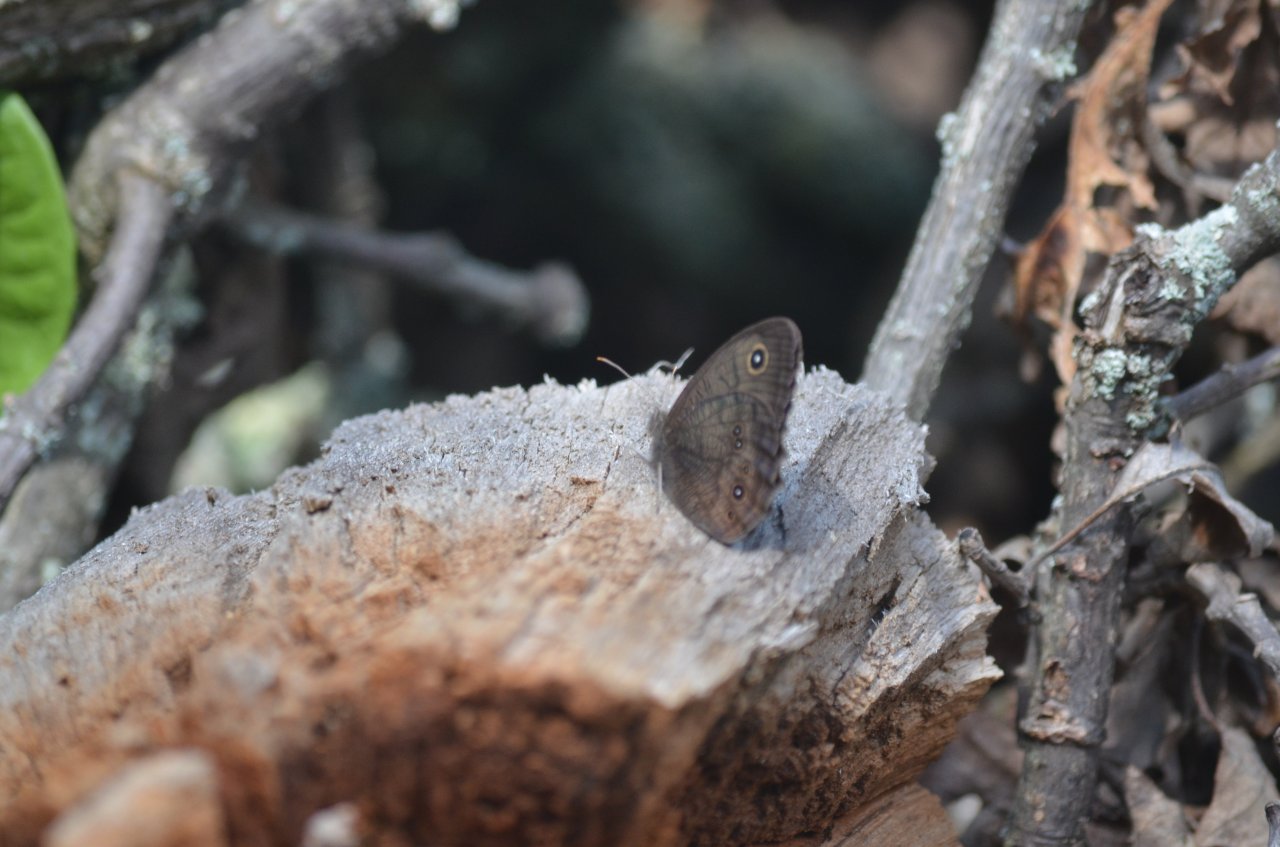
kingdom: Animalia
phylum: Arthropoda
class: Insecta
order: Lepidoptera
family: Nymphalidae
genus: Cercyonis
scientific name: Cercyonis pegala
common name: Common Wood-Nymph
